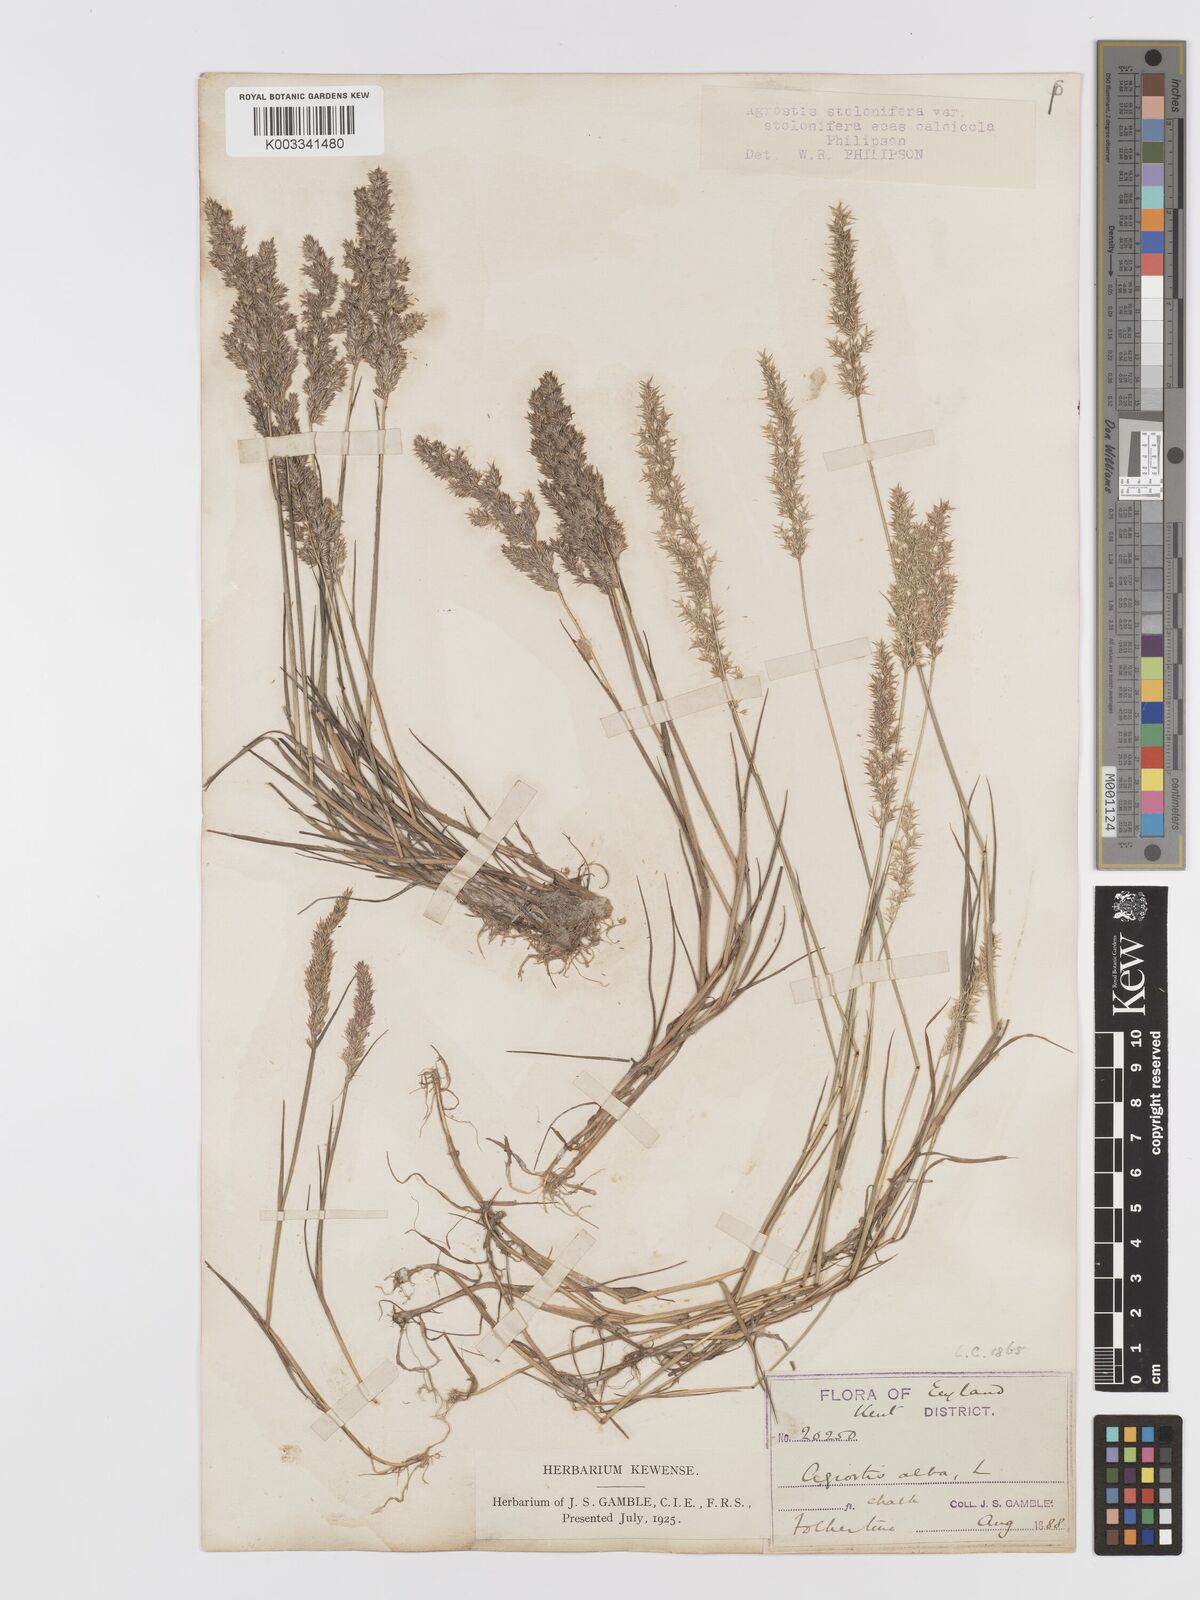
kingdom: Plantae
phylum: Tracheophyta
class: Liliopsida
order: Poales
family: Poaceae
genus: Agrostis
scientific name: Agrostis stolonifera
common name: Creeping bentgrass
